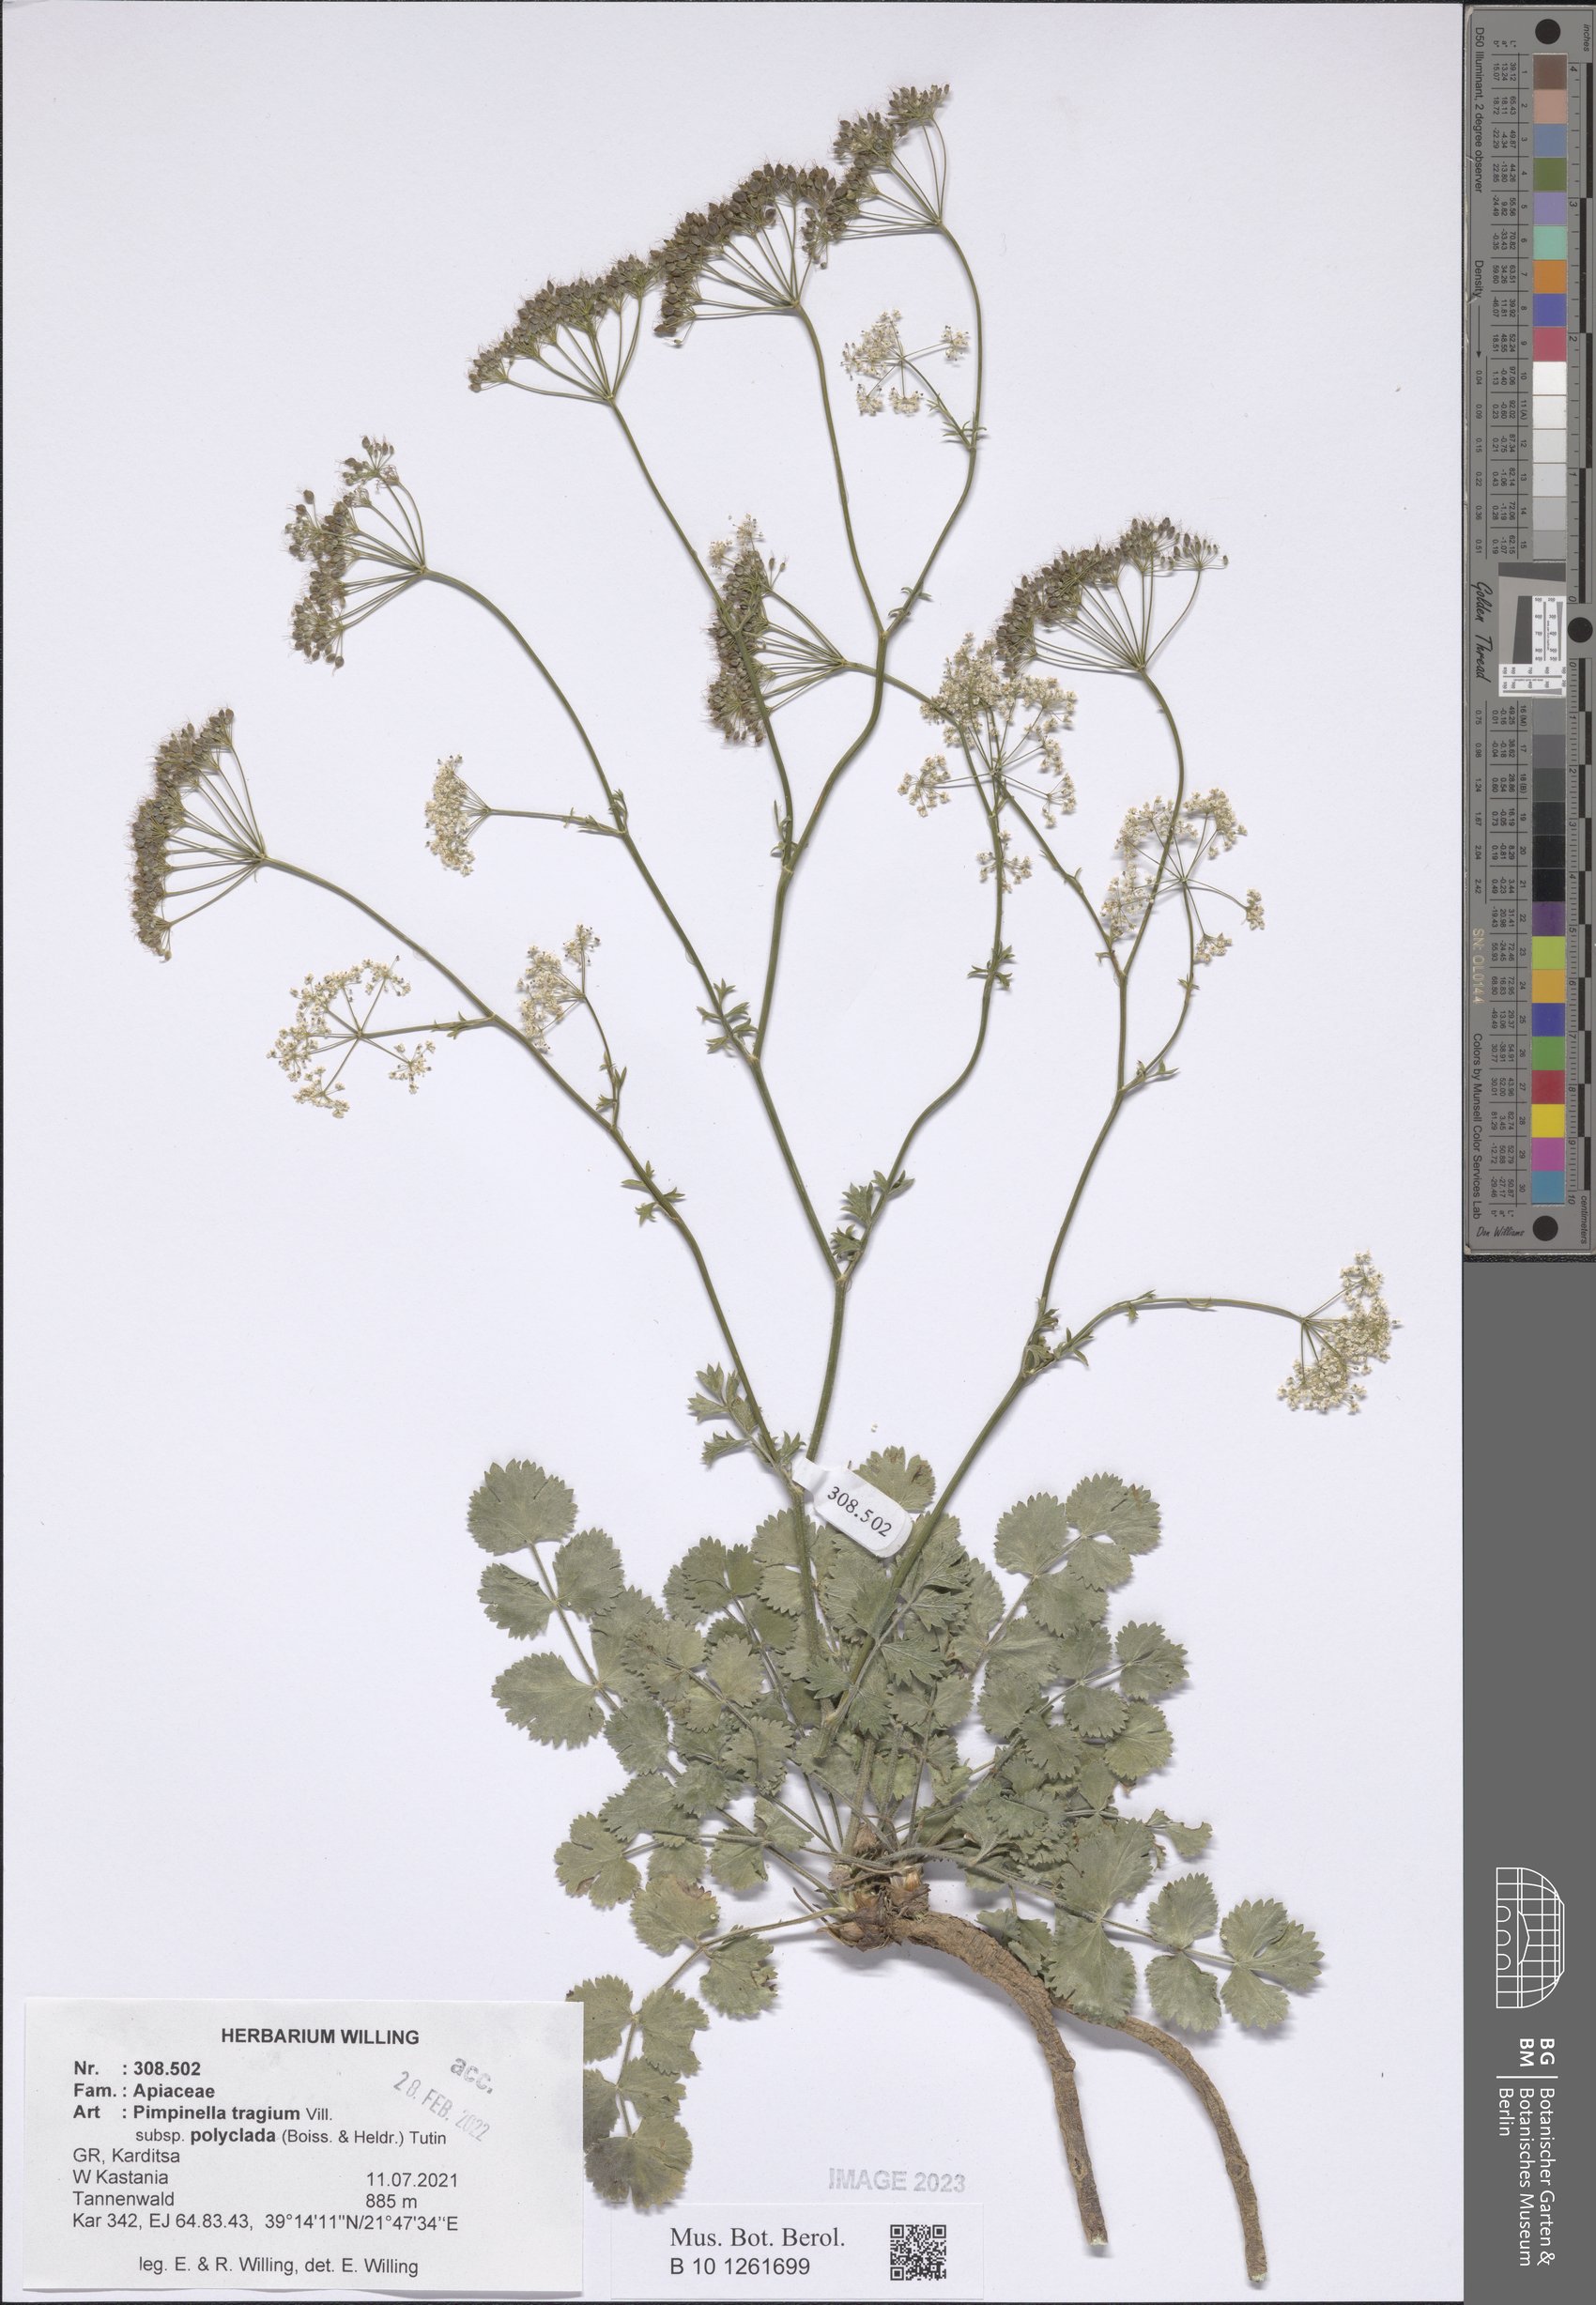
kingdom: Plantae
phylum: Tracheophyta
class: Magnoliopsida
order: Apiales
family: Apiaceae
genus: Pimpinella
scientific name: Pimpinella tragium
